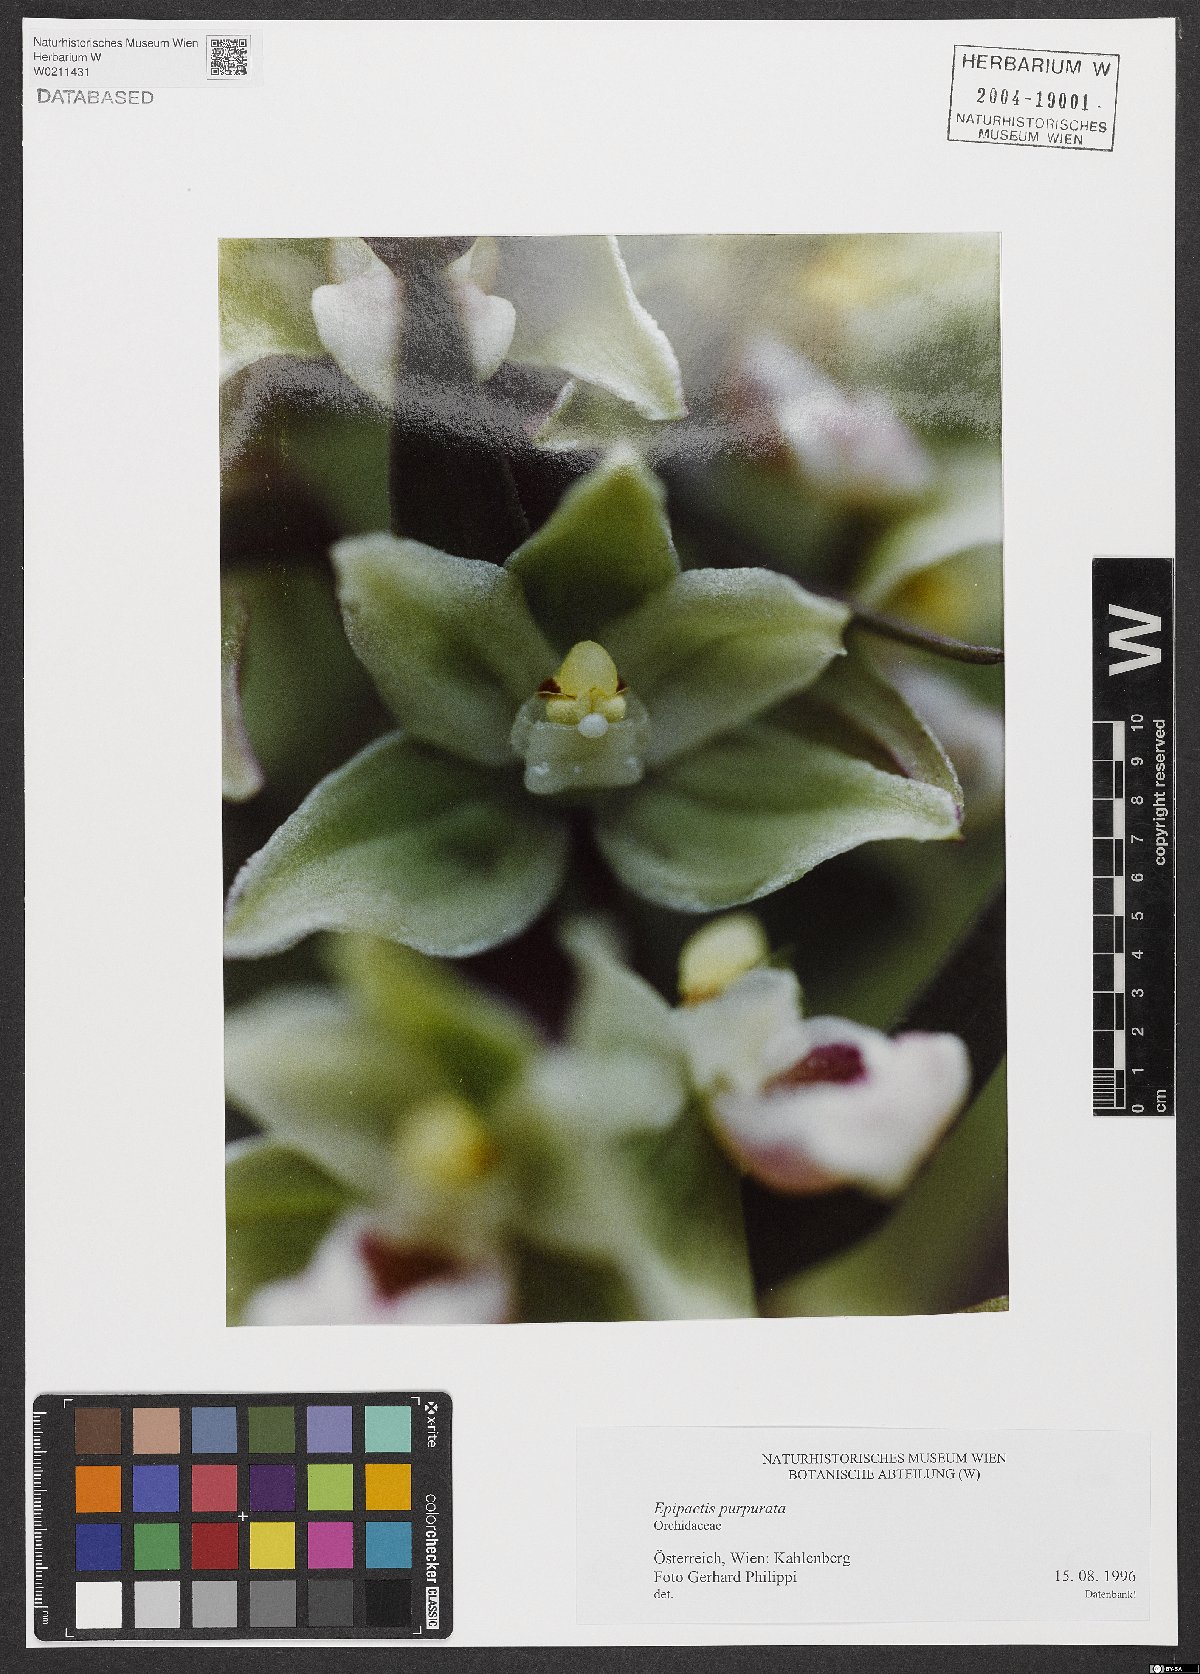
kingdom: Plantae
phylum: Tracheophyta
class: Liliopsida
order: Asparagales
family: Orchidaceae
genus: Epipactis
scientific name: Epipactis purpurata
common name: Violet helleborine
